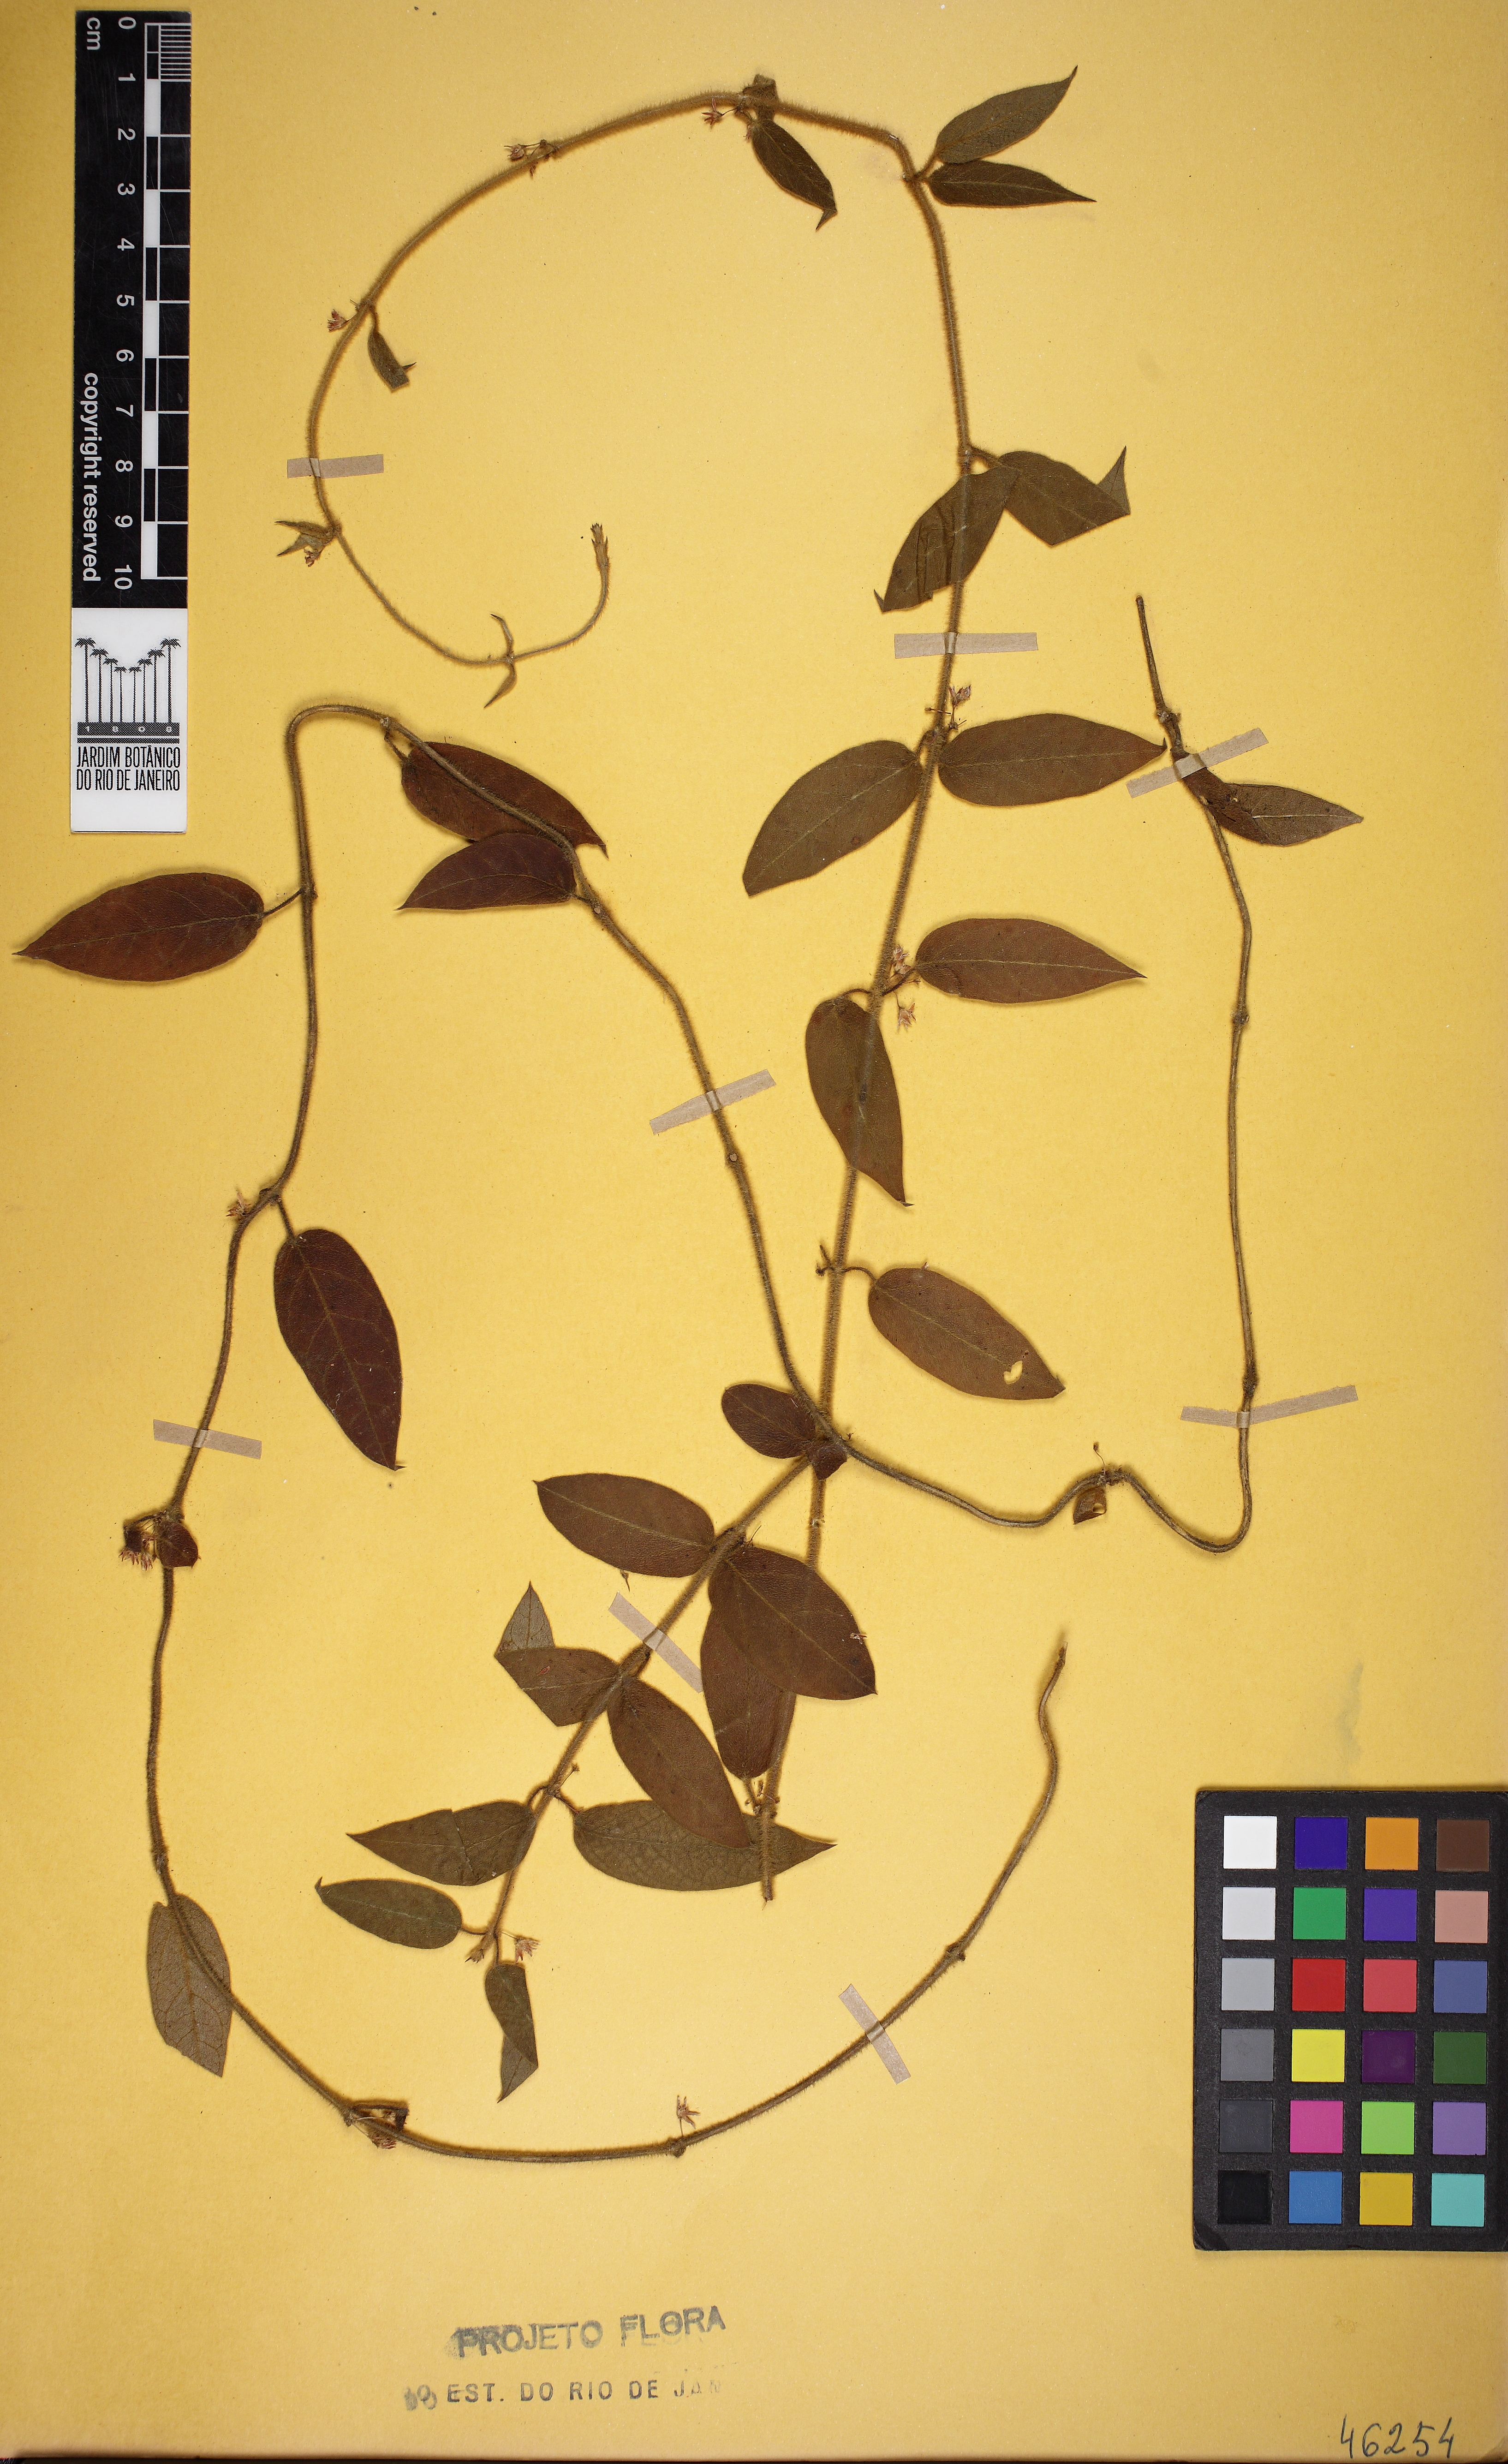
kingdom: Plantae
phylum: Tracheophyta
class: Magnoliopsida
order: Gentianales
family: Apocynaceae
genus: Ditassa
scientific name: Ditassa hispida
